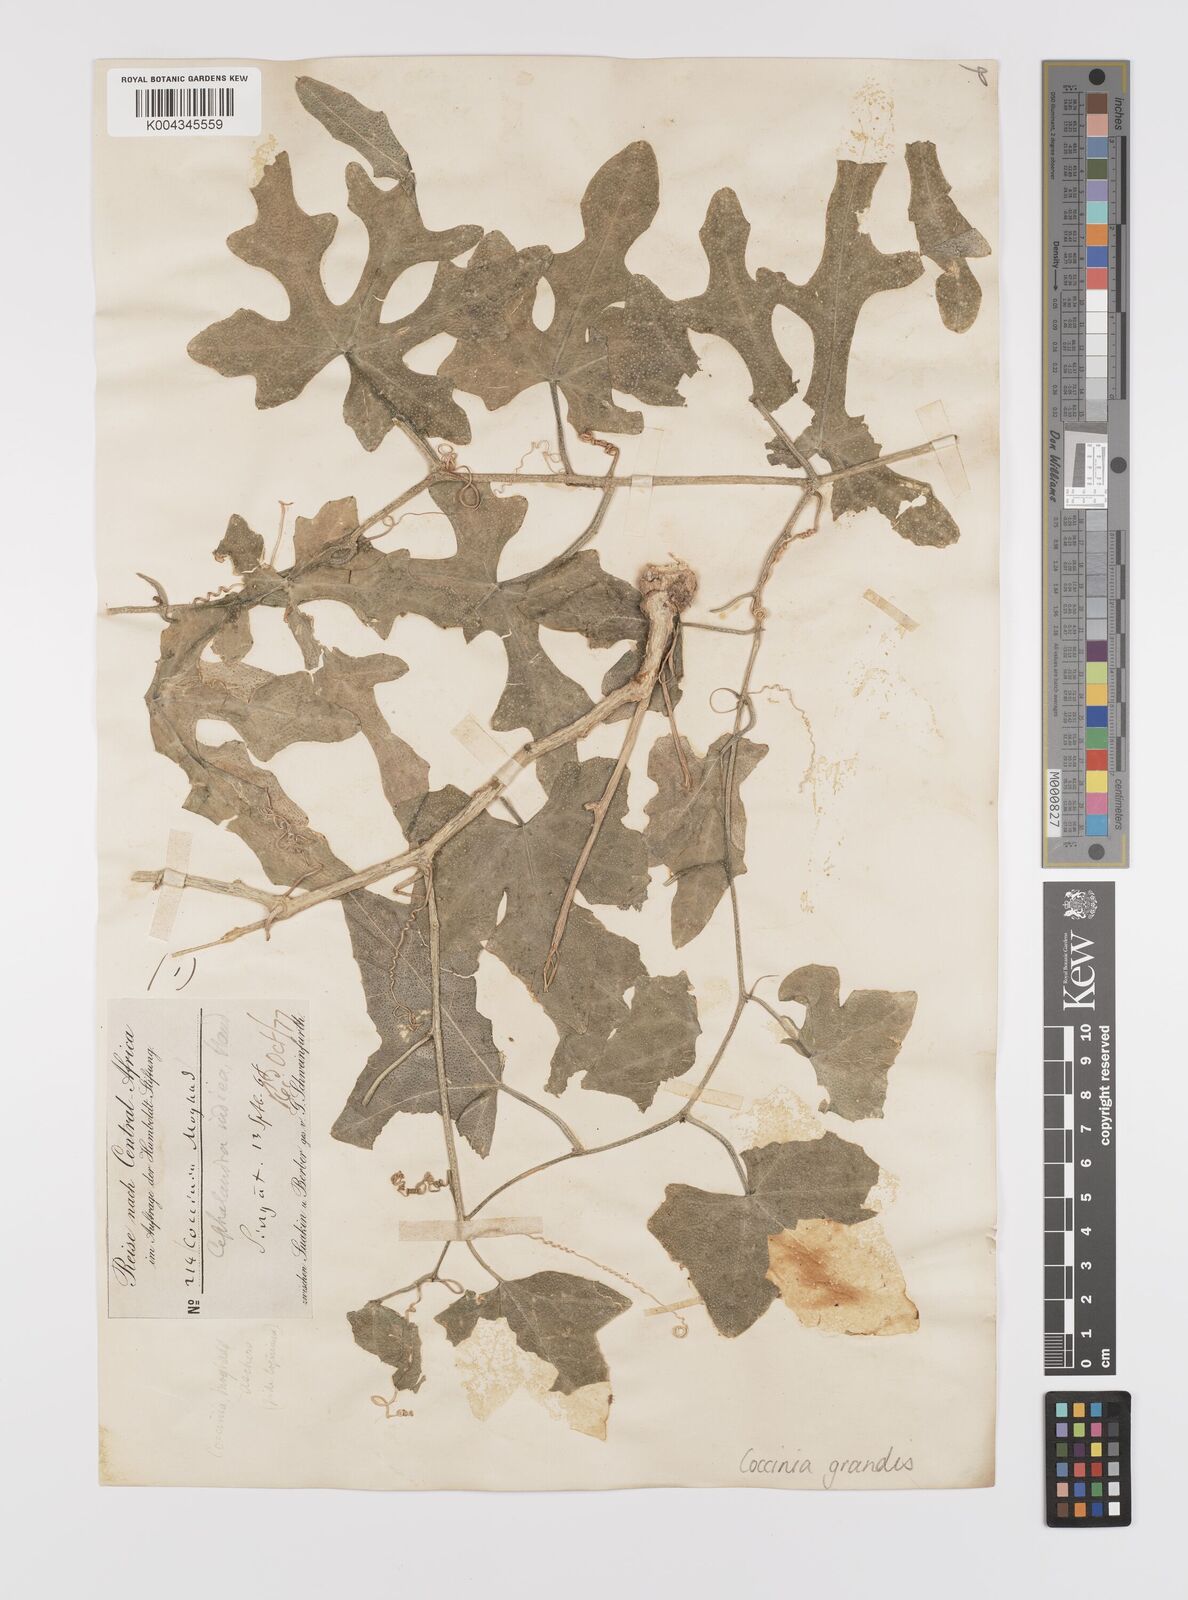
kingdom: Plantae
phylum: Tracheophyta
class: Magnoliopsida
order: Cucurbitales
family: Cucurbitaceae
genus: Coccinia
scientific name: Coccinia grandis
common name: Ivy gourd
